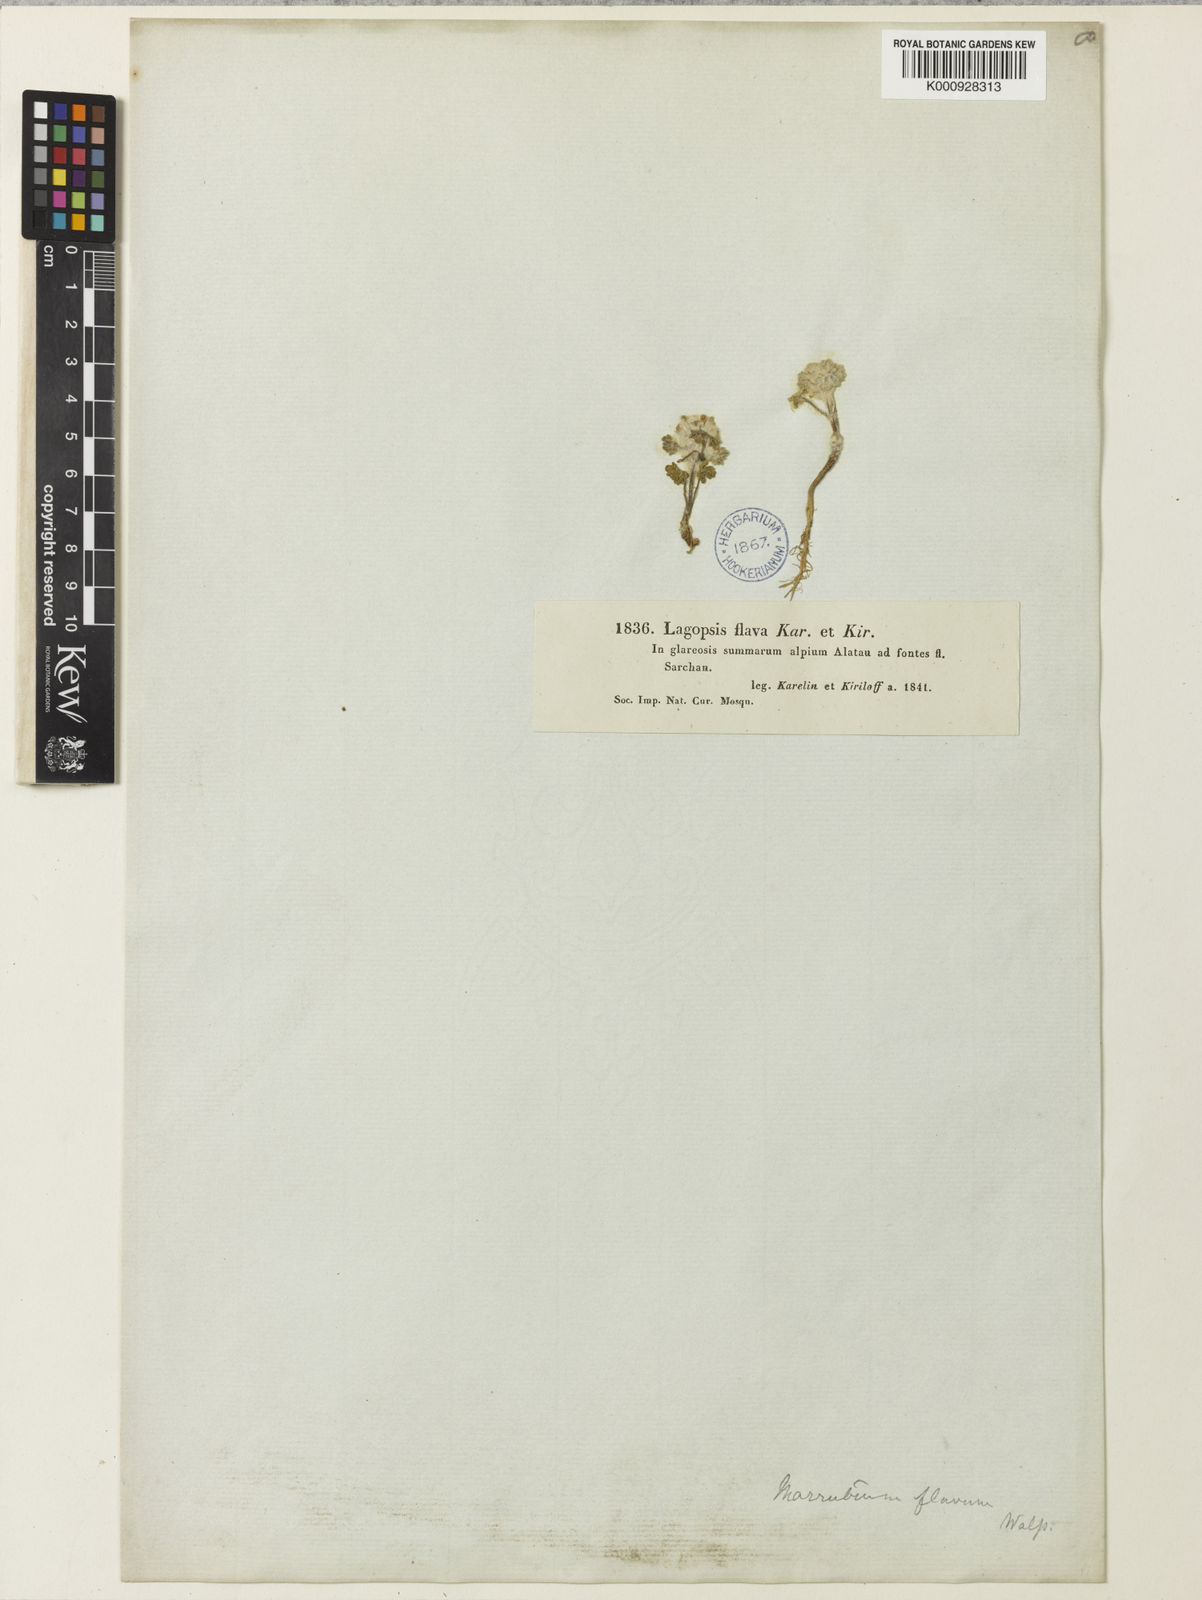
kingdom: Plantae
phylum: Tracheophyta
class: Magnoliopsida
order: Lamiales
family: Lamiaceae
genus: Lagopsis
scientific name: Lagopsis flava
